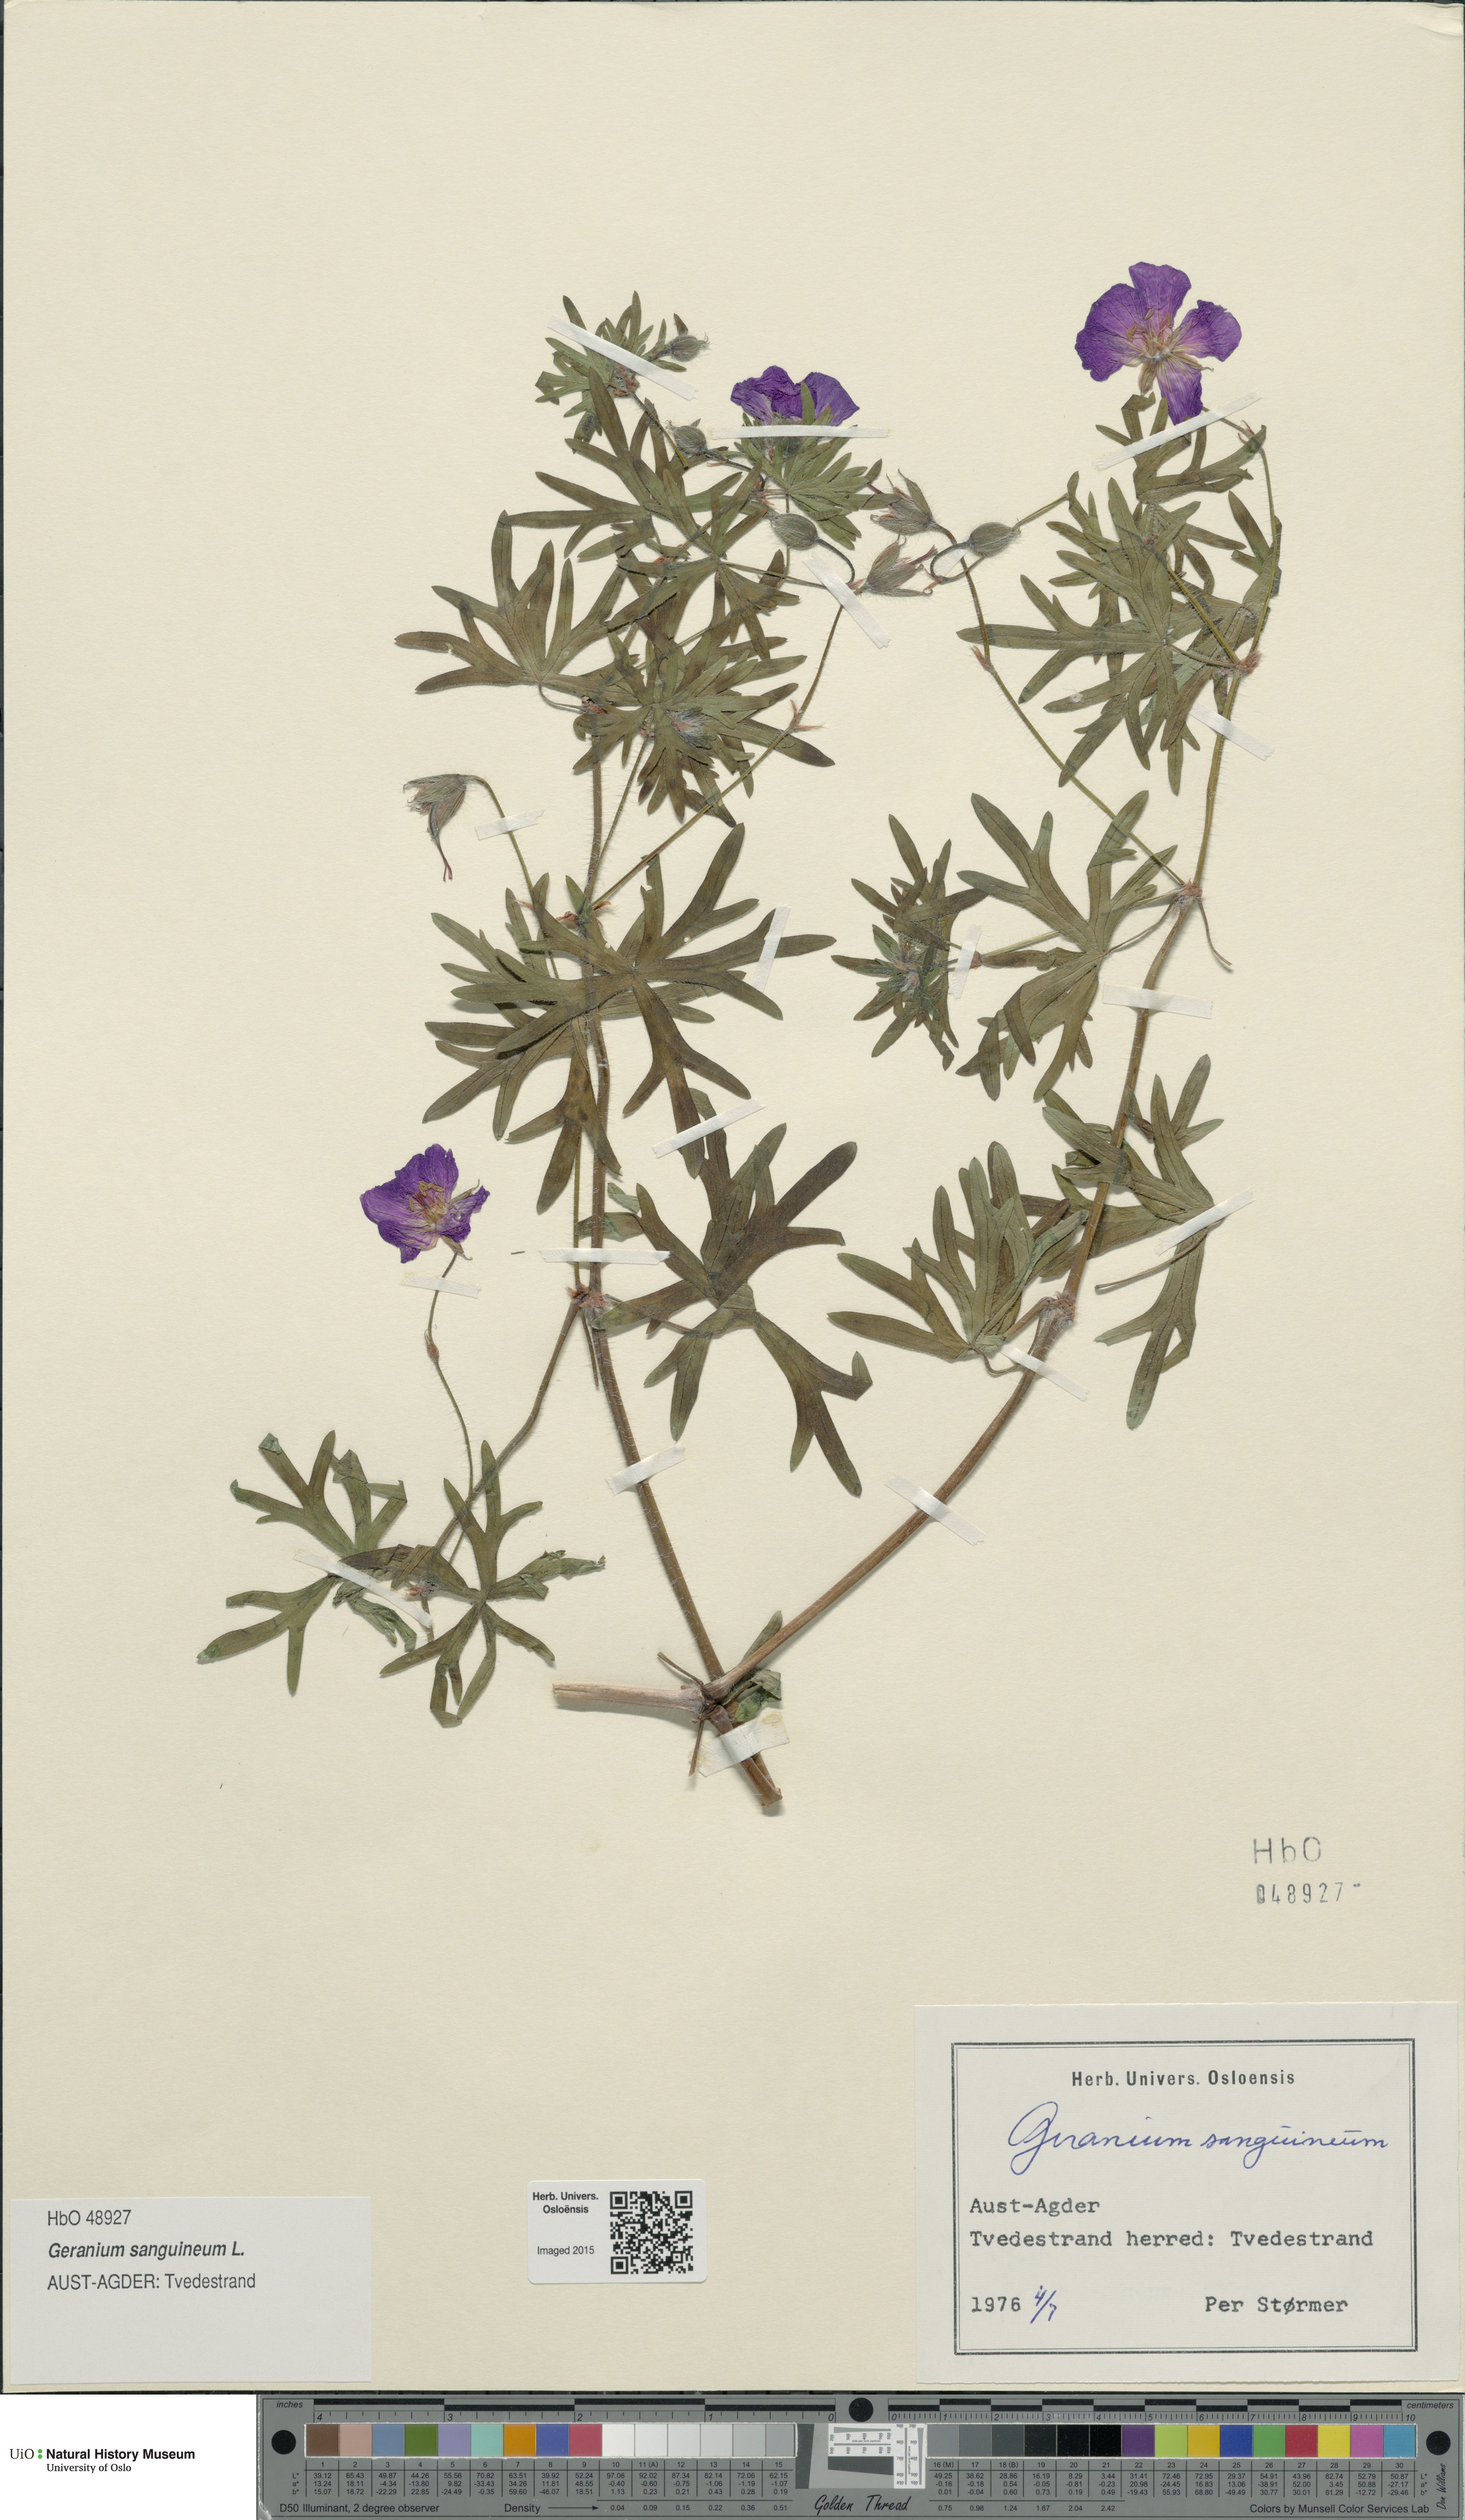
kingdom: Plantae
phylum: Tracheophyta
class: Magnoliopsida
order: Geraniales
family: Geraniaceae
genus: Geranium
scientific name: Geranium sanguineum
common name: Bloody crane's-bill
